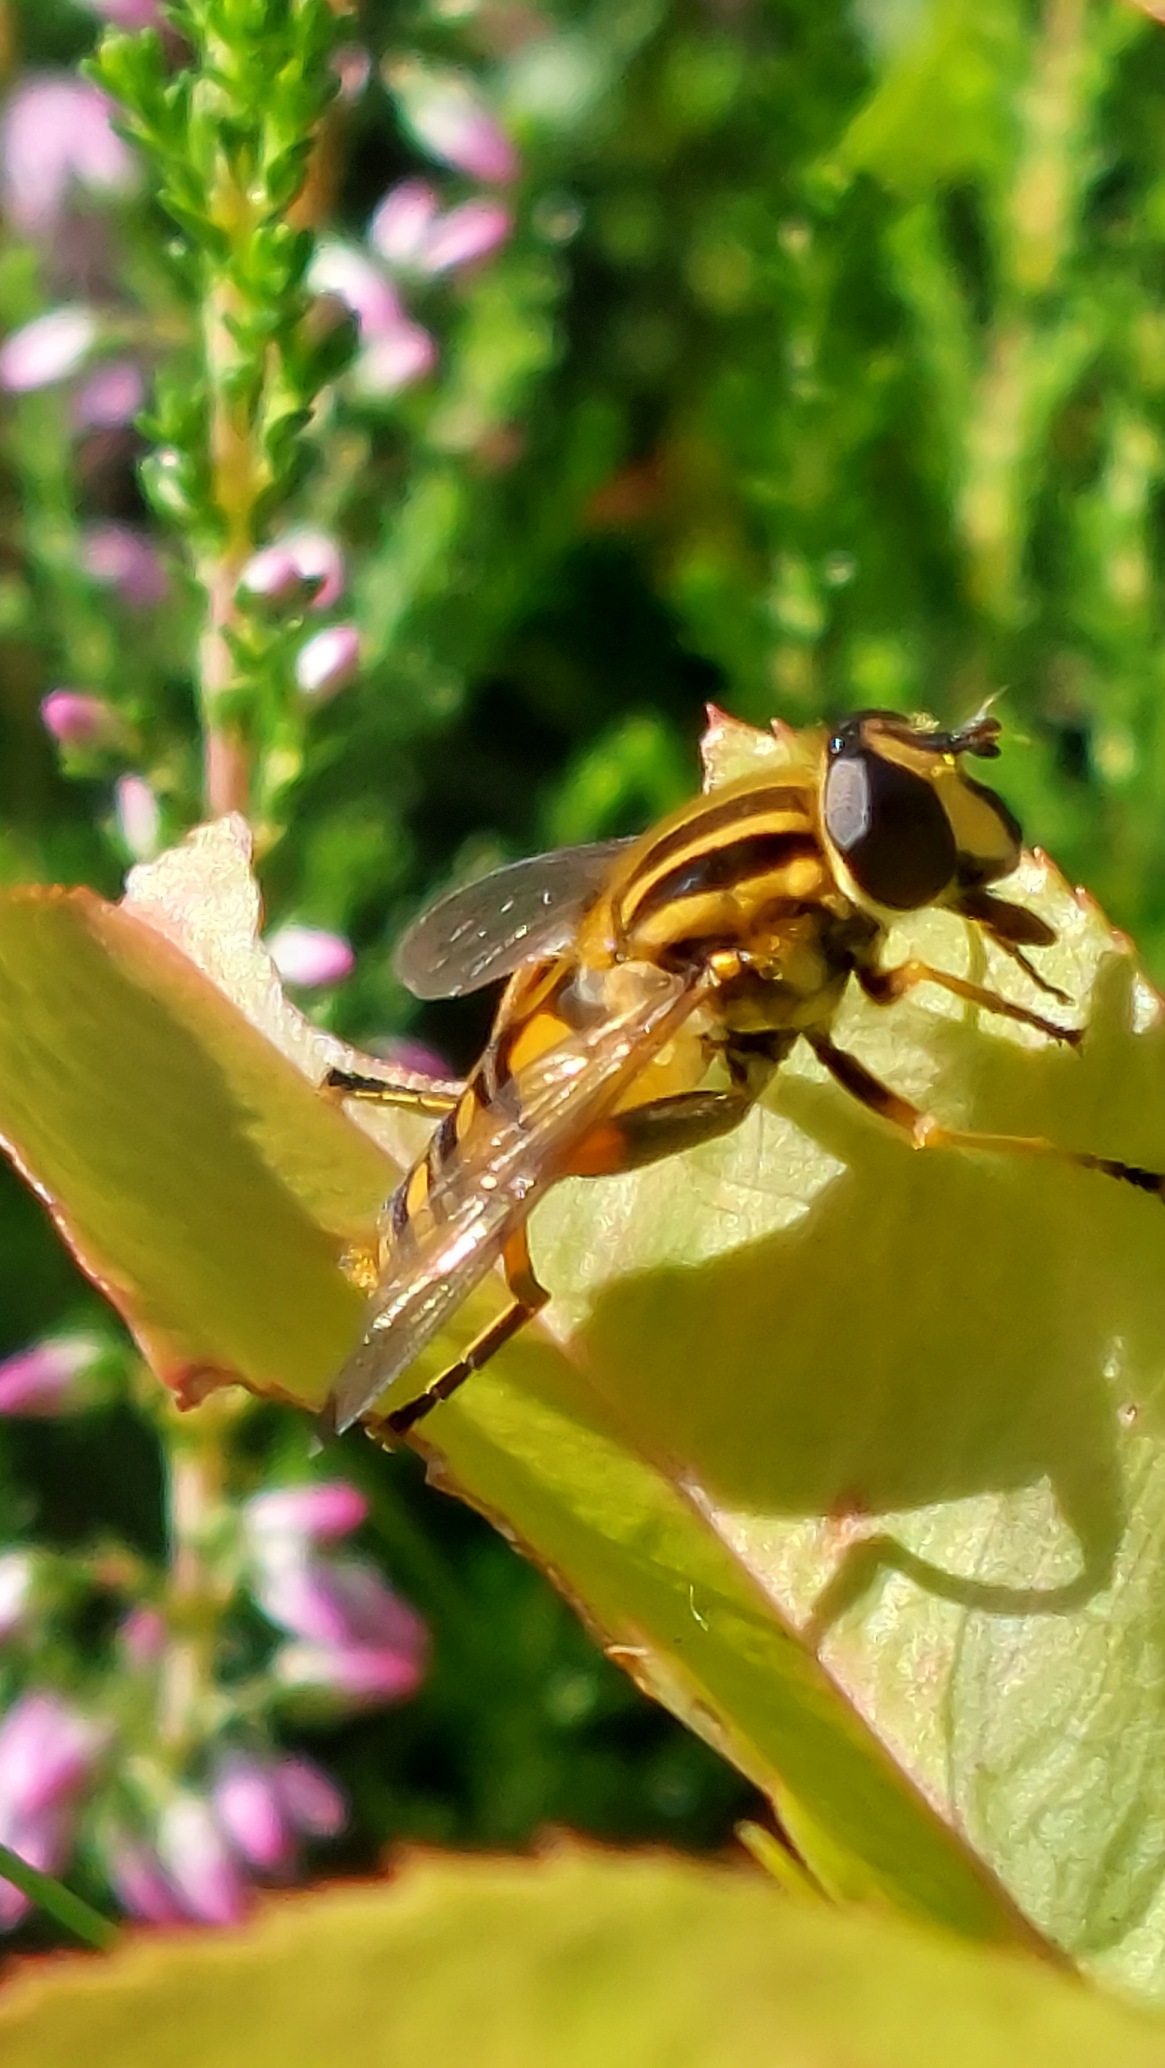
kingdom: Animalia
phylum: Arthropoda
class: Insecta
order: Diptera
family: Syrphidae
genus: Helophilus
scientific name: Helophilus pendulus
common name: Almindelig sumpsvirreflue
